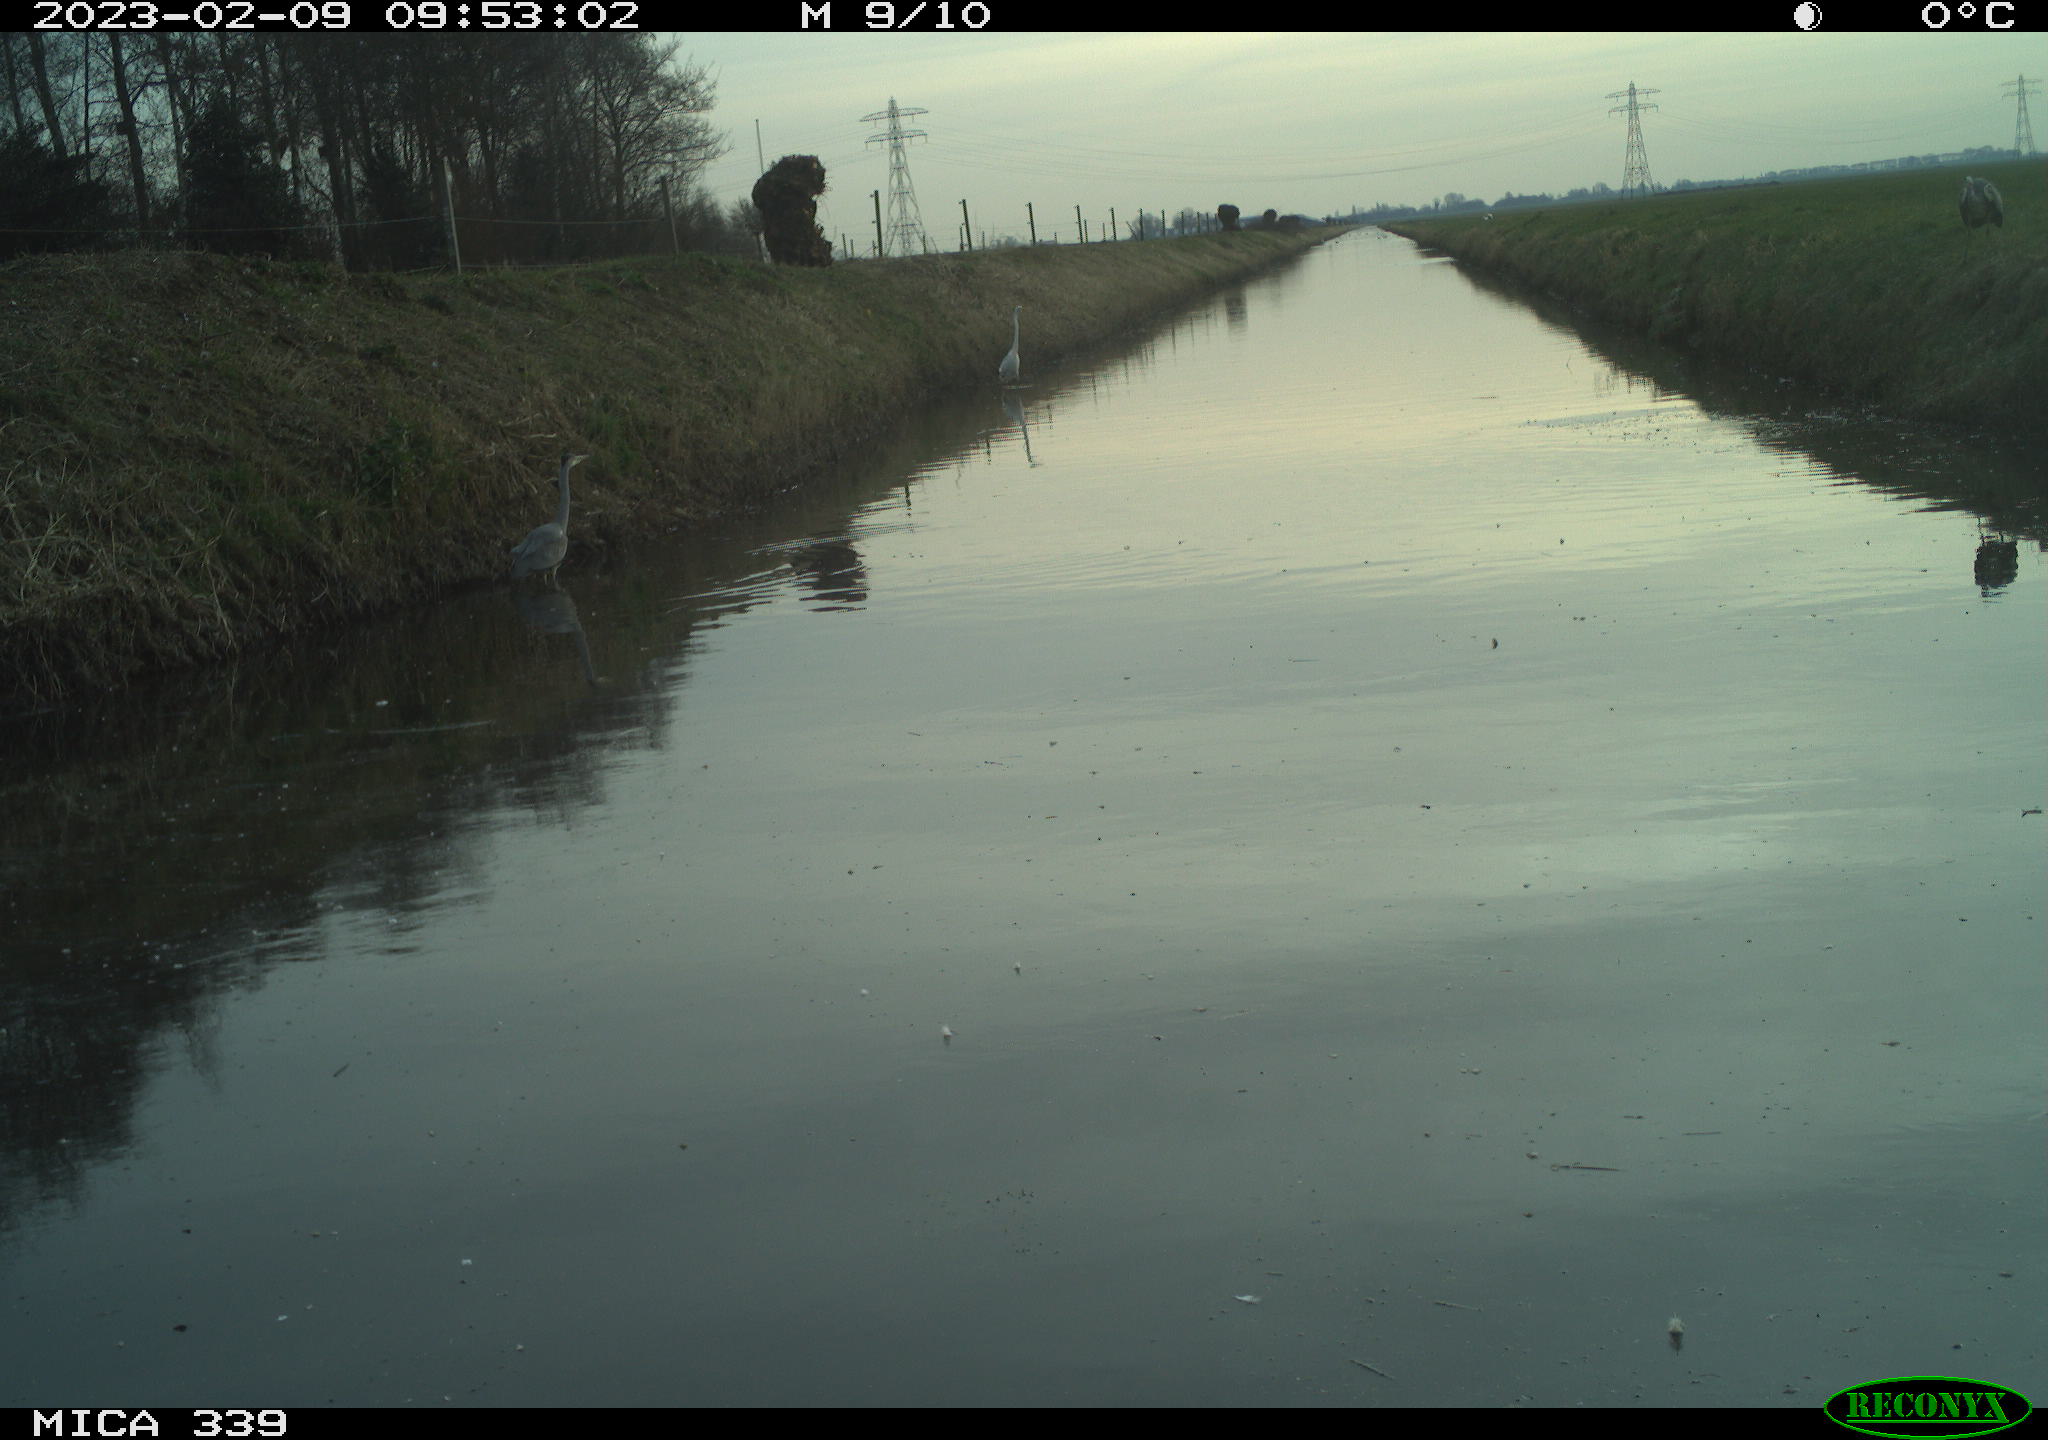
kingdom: Animalia
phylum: Chordata
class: Aves
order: Pelecaniformes
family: Ardeidae
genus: Ardea
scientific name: Ardea cinerea
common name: Grey heron
